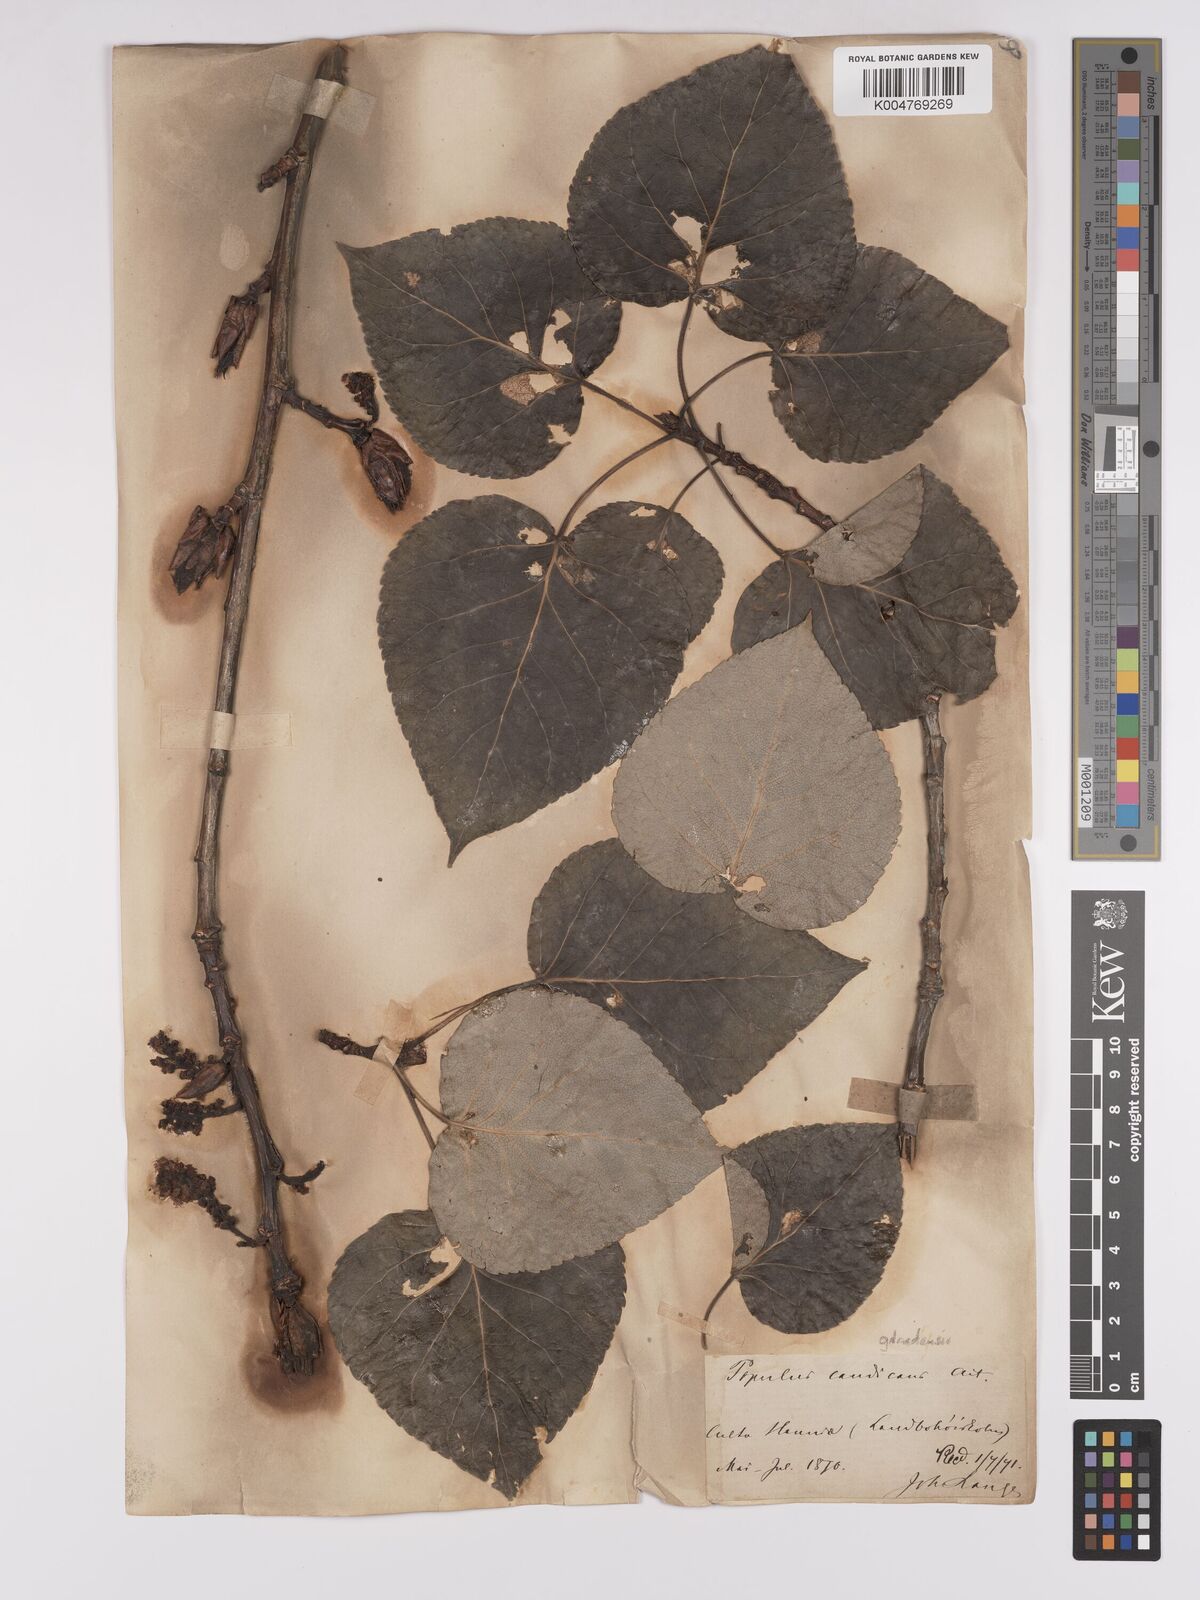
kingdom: Plantae
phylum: Tracheophyta
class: Magnoliopsida
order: Malpighiales
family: Salicaceae
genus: Populus
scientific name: Populus jackii
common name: Balm-of-gilead
